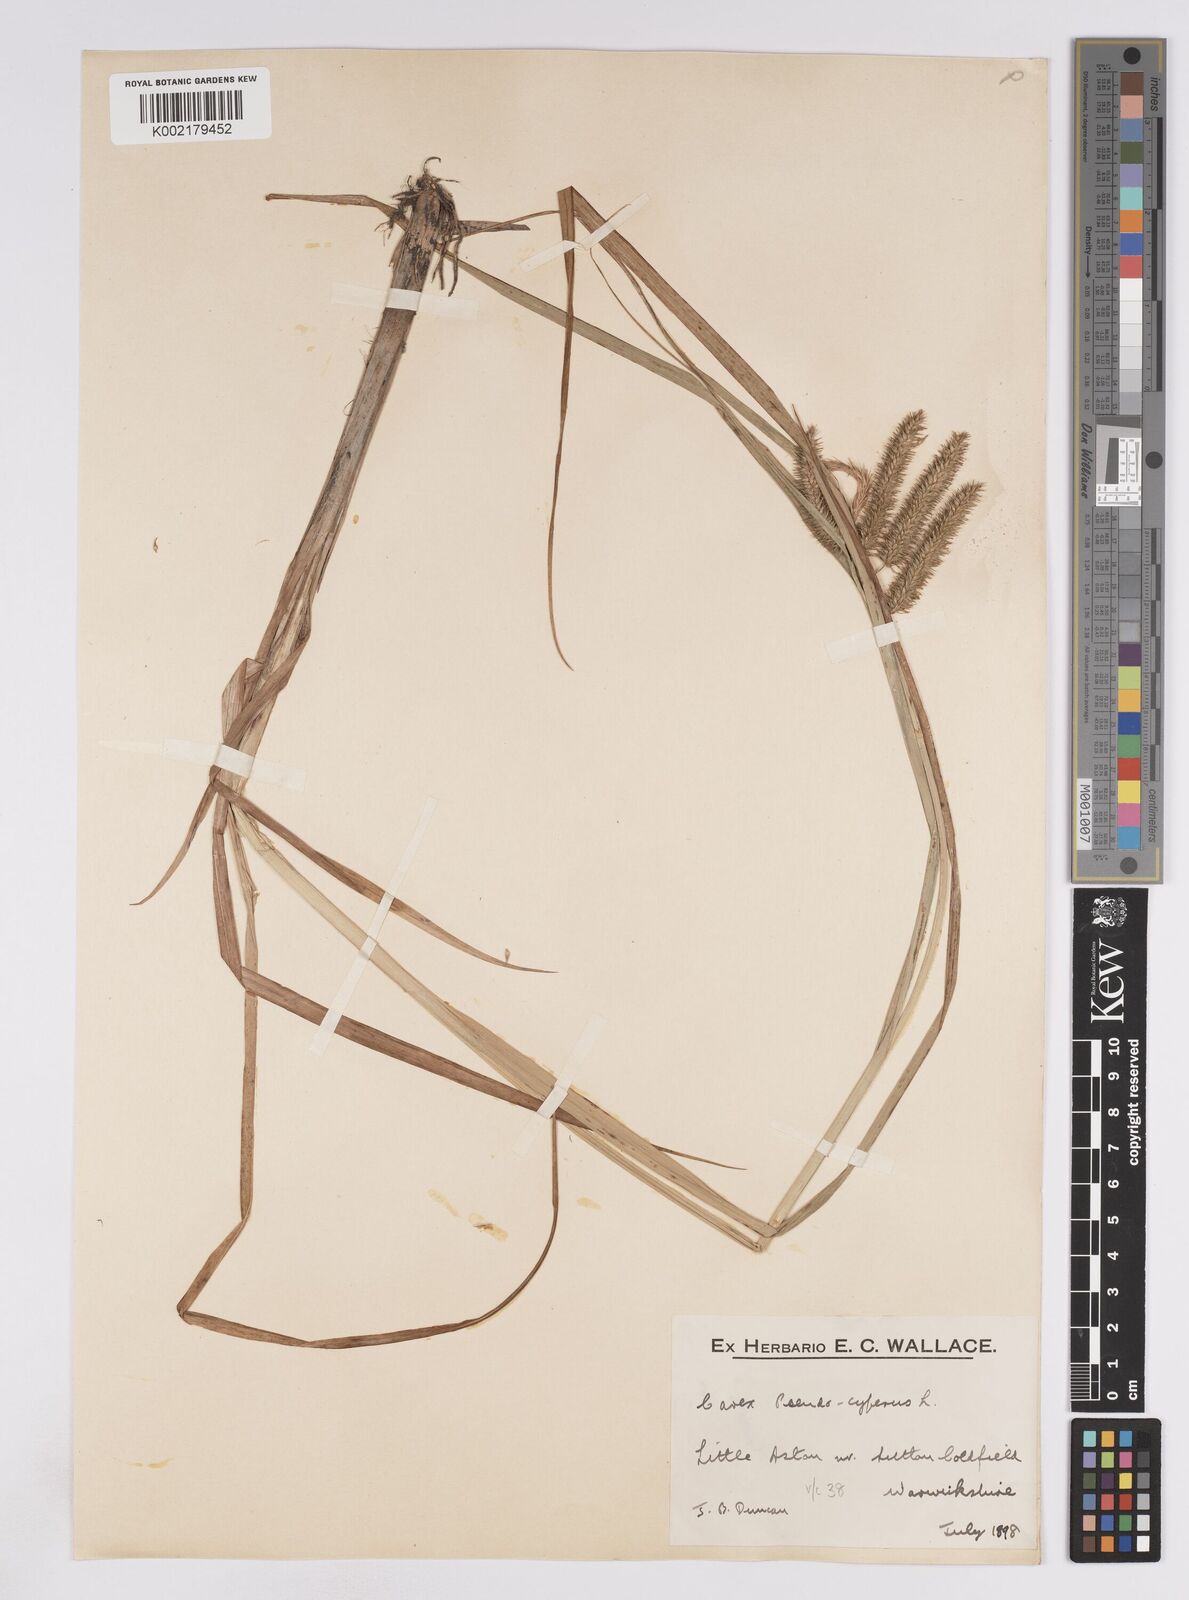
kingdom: Plantae
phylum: Tracheophyta
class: Liliopsida
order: Poales
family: Cyperaceae
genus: Carex
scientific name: Carex pseudocyperus
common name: Cyperus sedge
